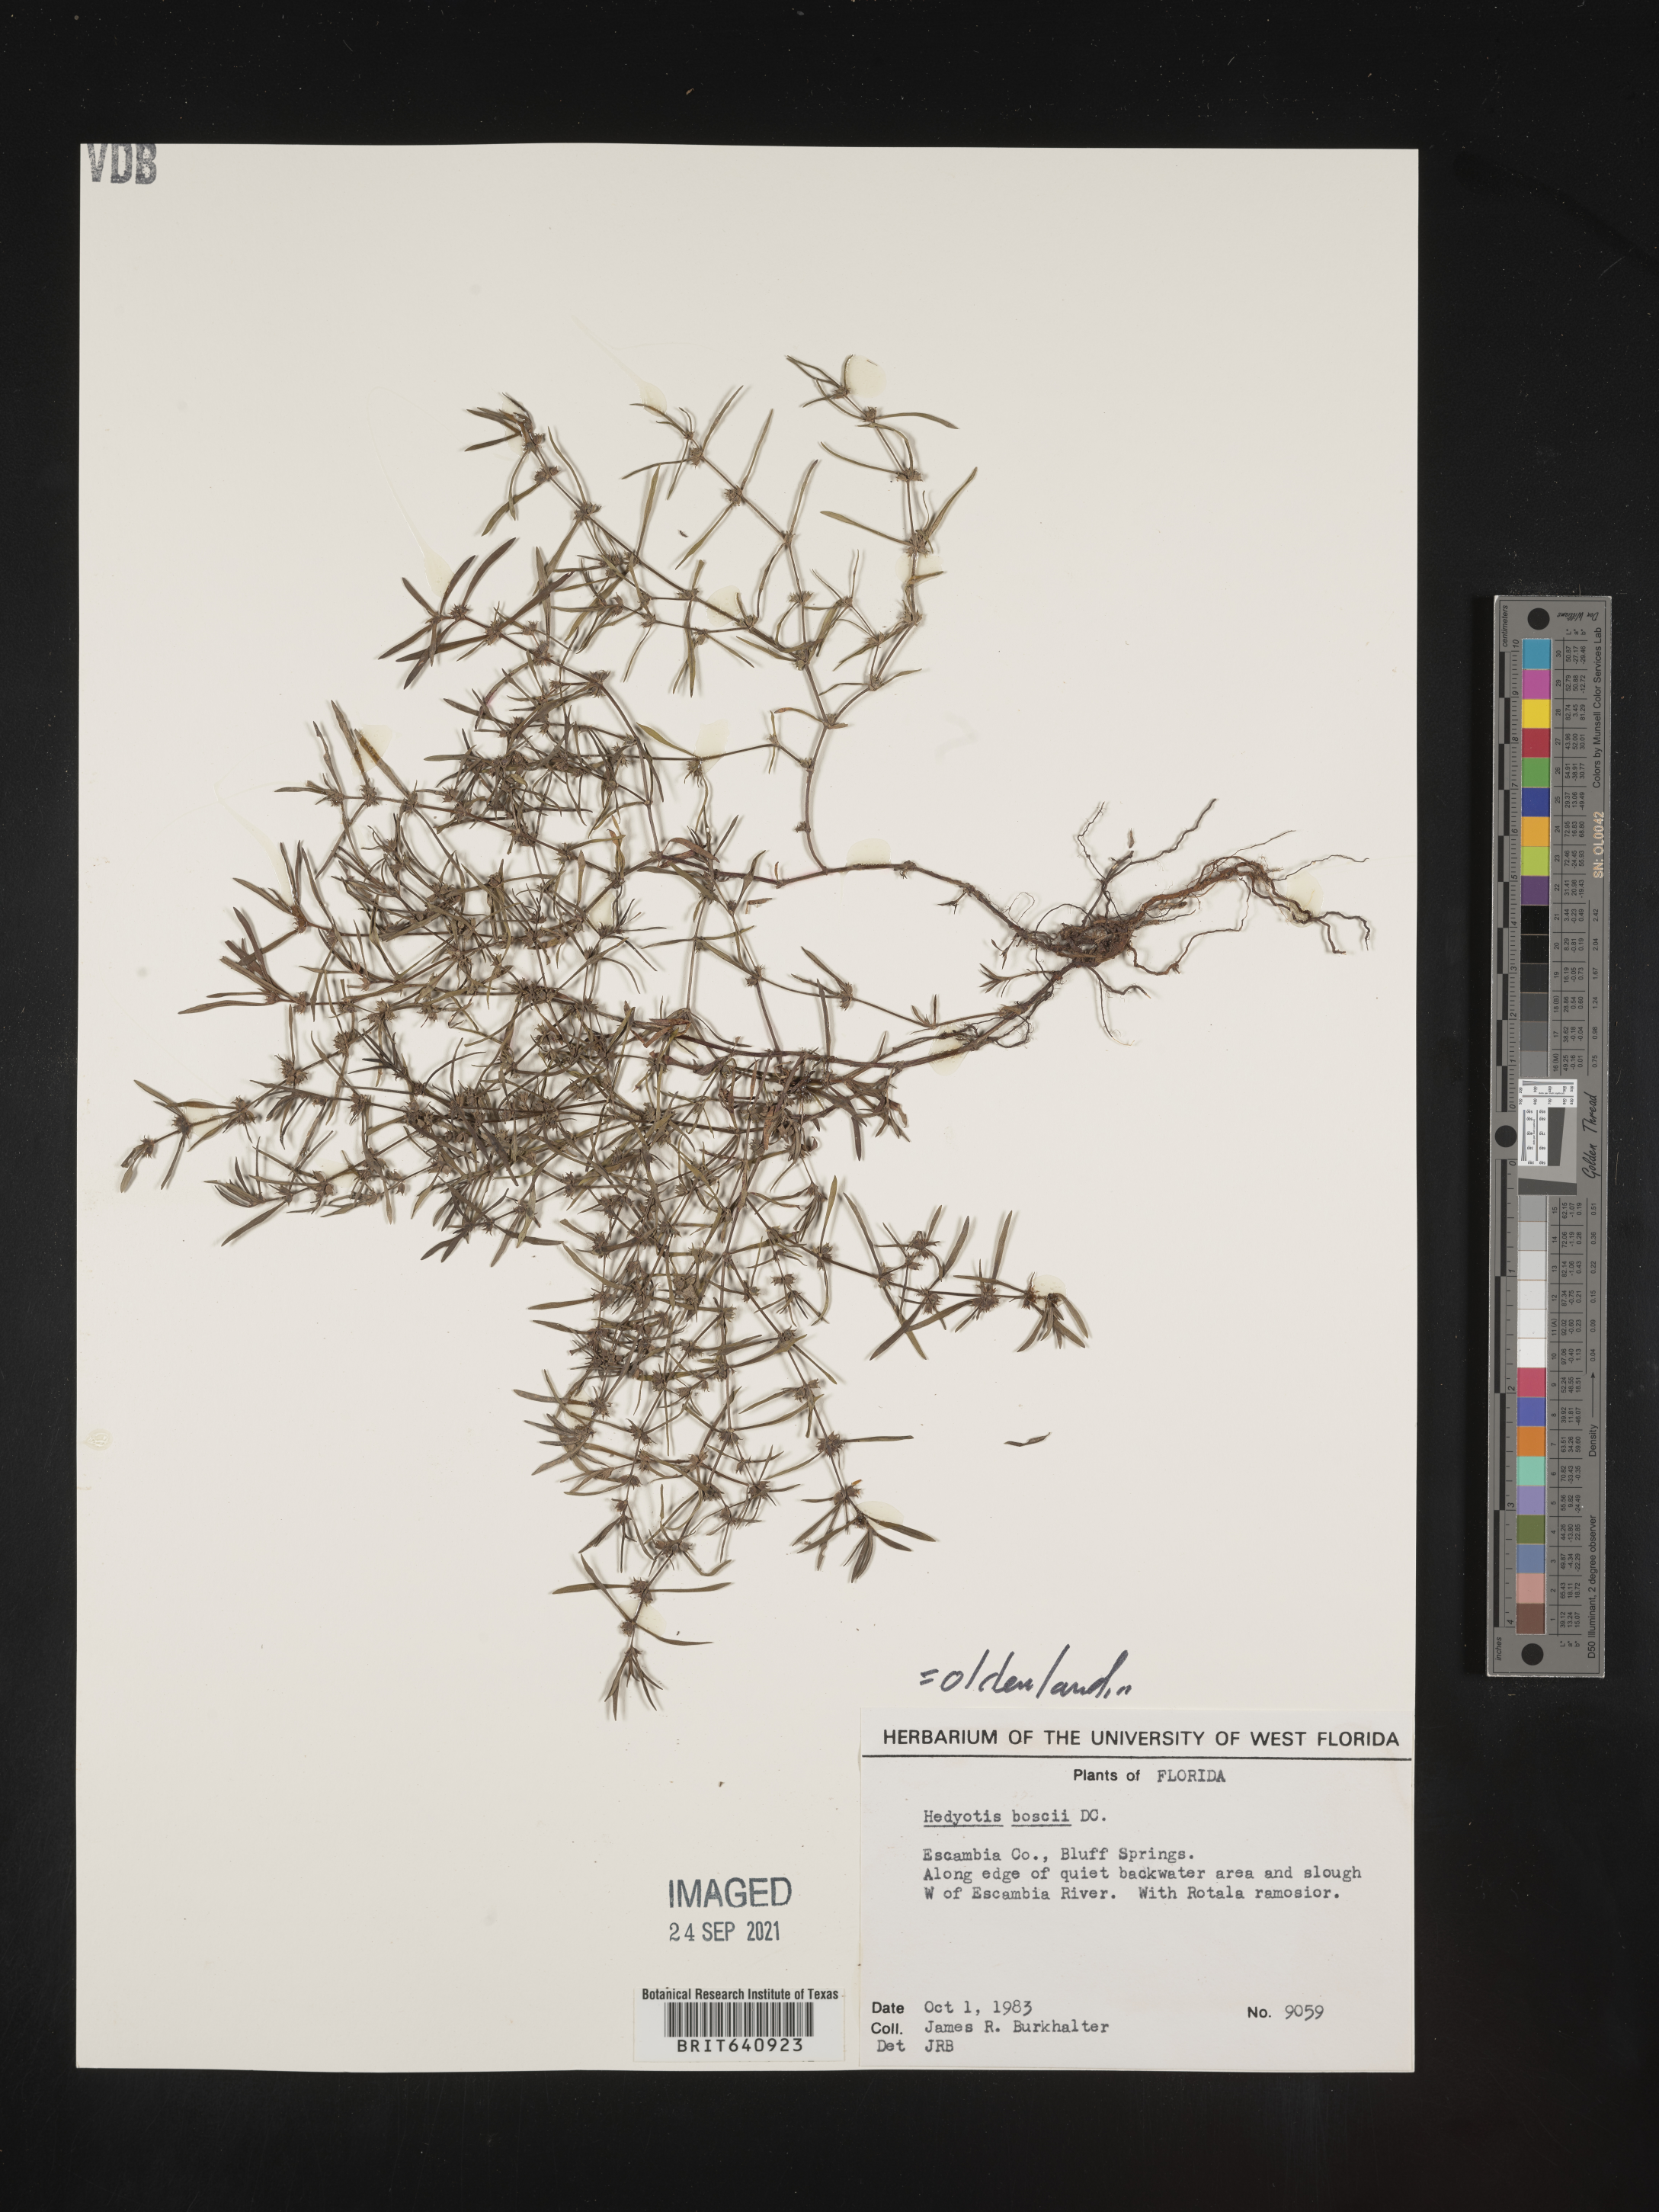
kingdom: Plantae
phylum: Tracheophyta
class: Magnoliopsida
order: Gentianales
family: Rubiaceae
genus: Oldenlandia
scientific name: Oldenlandia boscii
